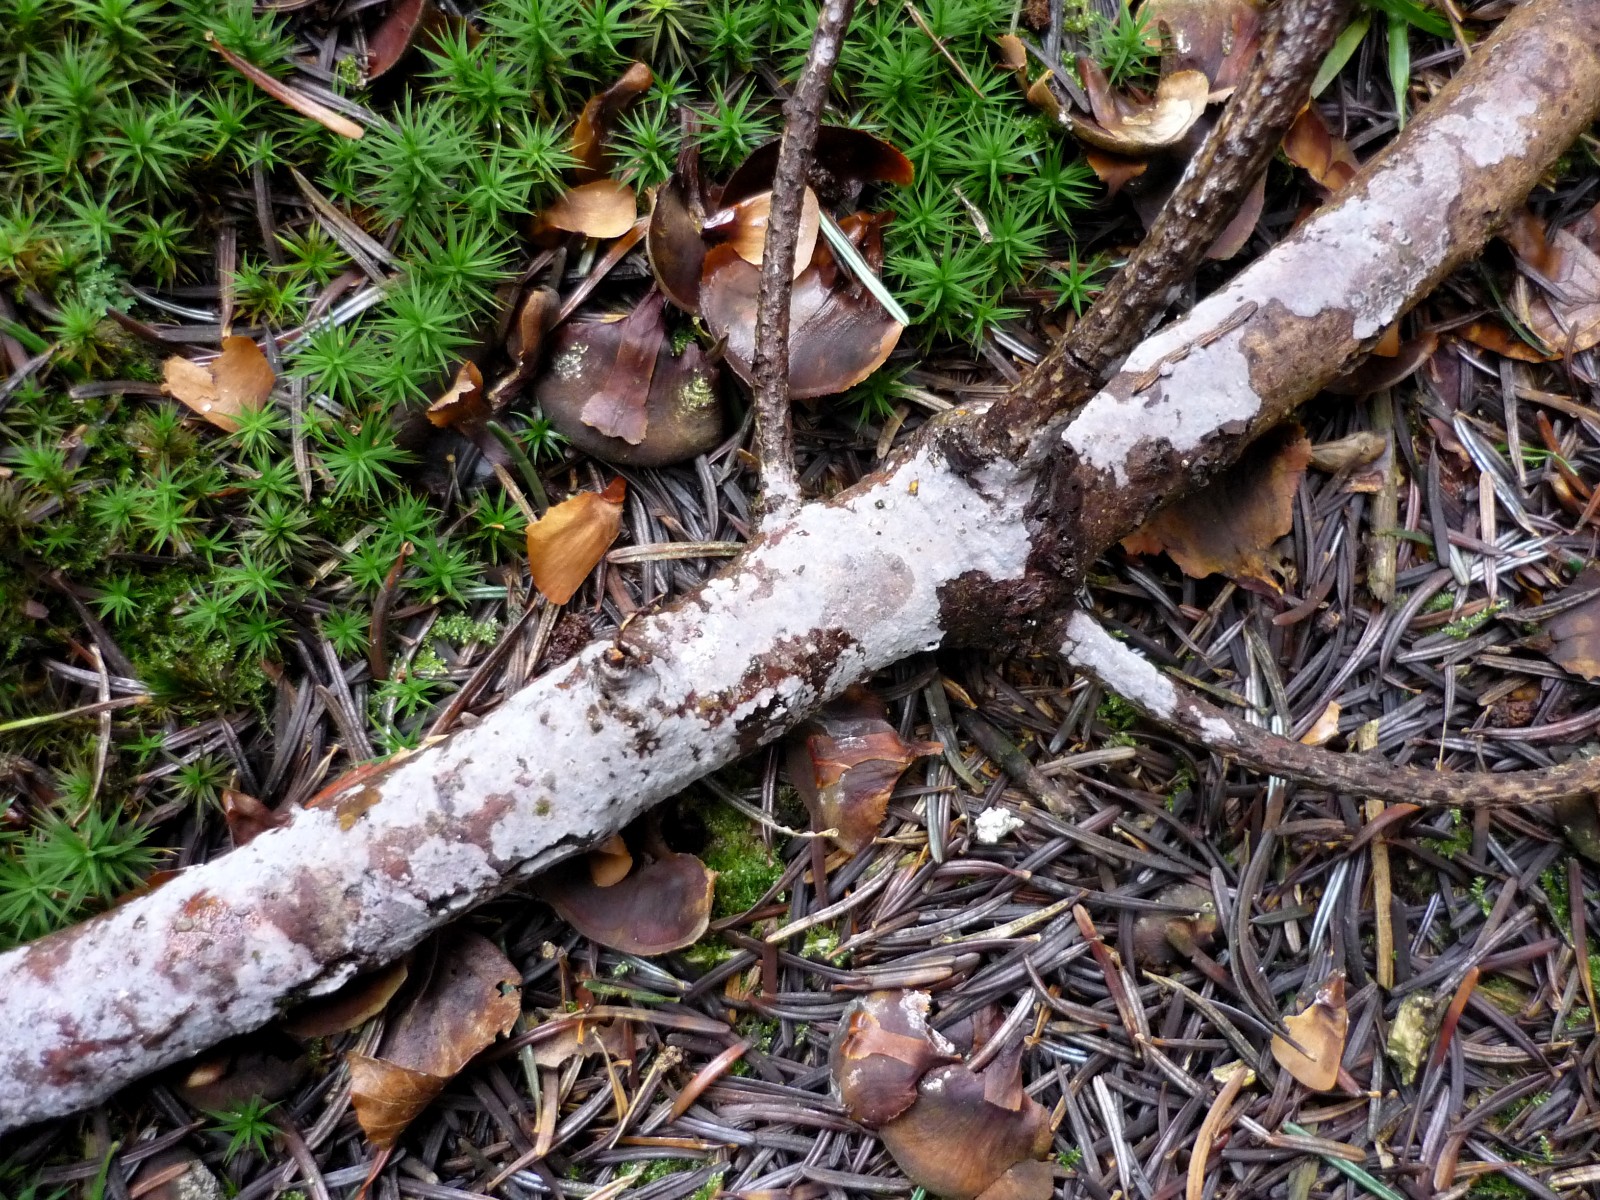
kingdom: Fungi
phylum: Basidiomycota
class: Agaricomycetes
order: Sebacinales
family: Sebacinaceae
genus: Sebacina
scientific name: Sebacina grisea
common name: blågrå bævrehinde
